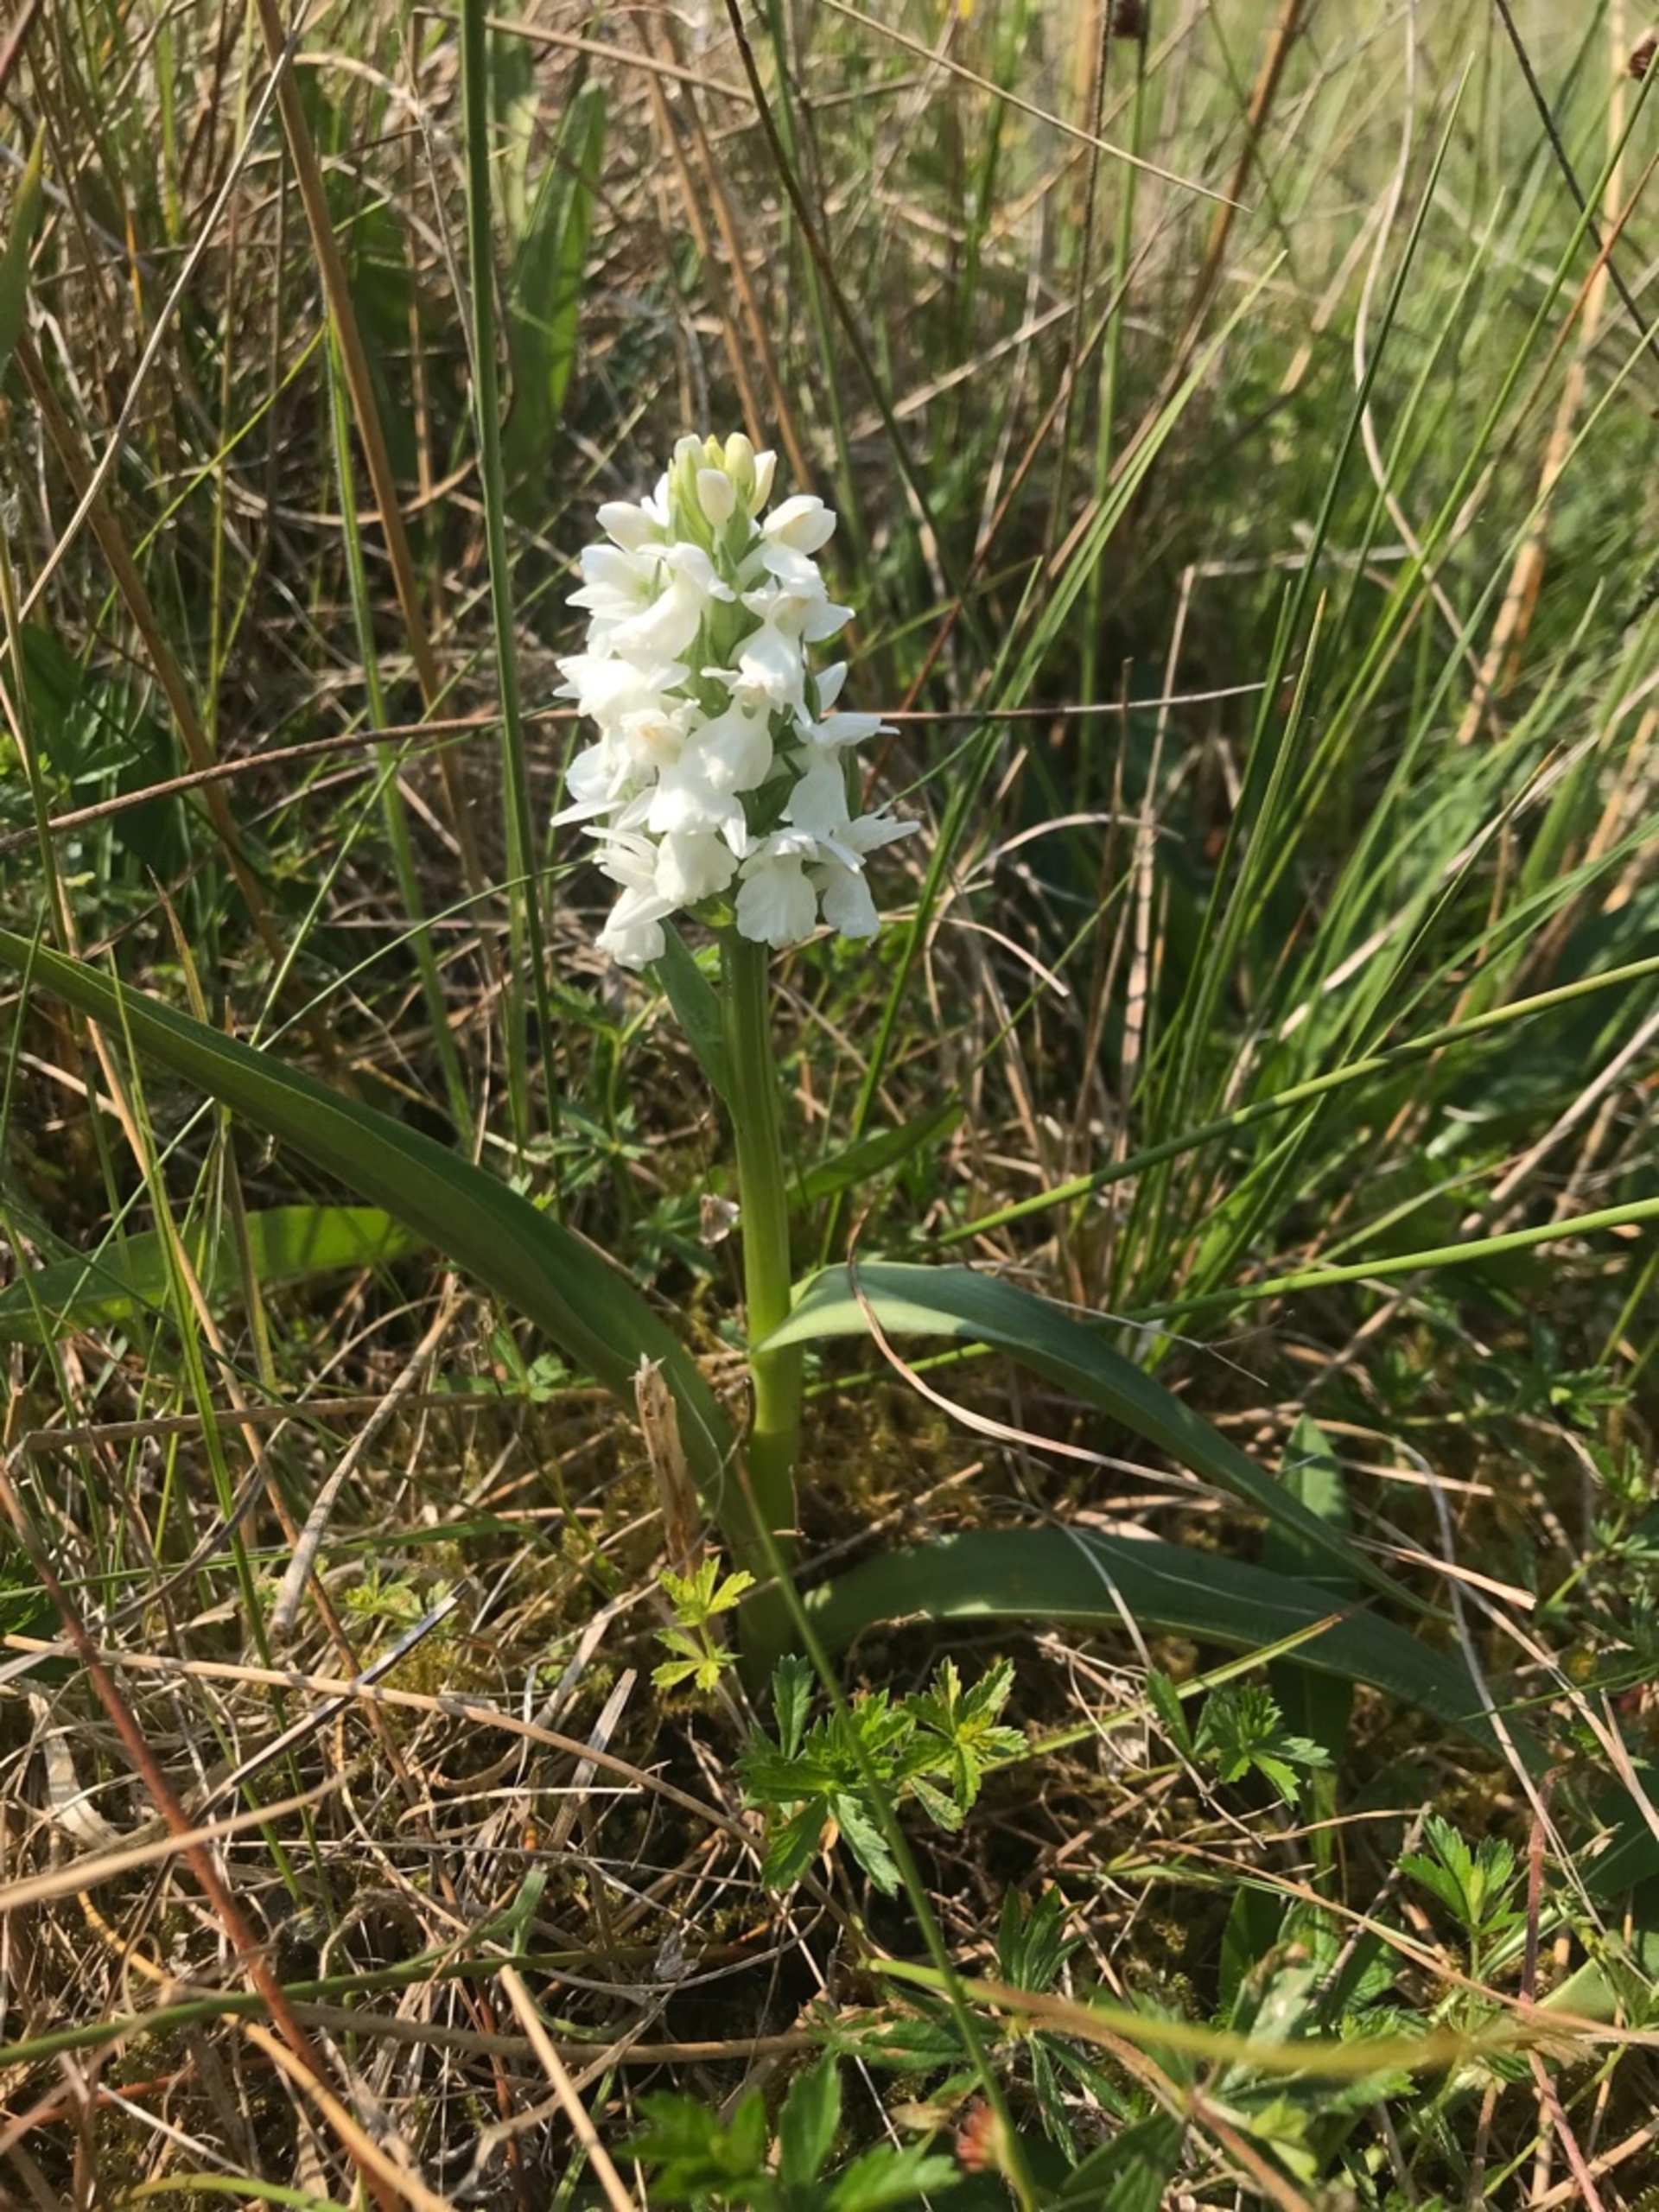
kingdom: Plantae
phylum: Tracheophyta
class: Liliopsida
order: Asparagales
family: Orchidaceae
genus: Dactylorhiza
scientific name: Dactylorhiza majalis
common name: Thy-gøgeurt
